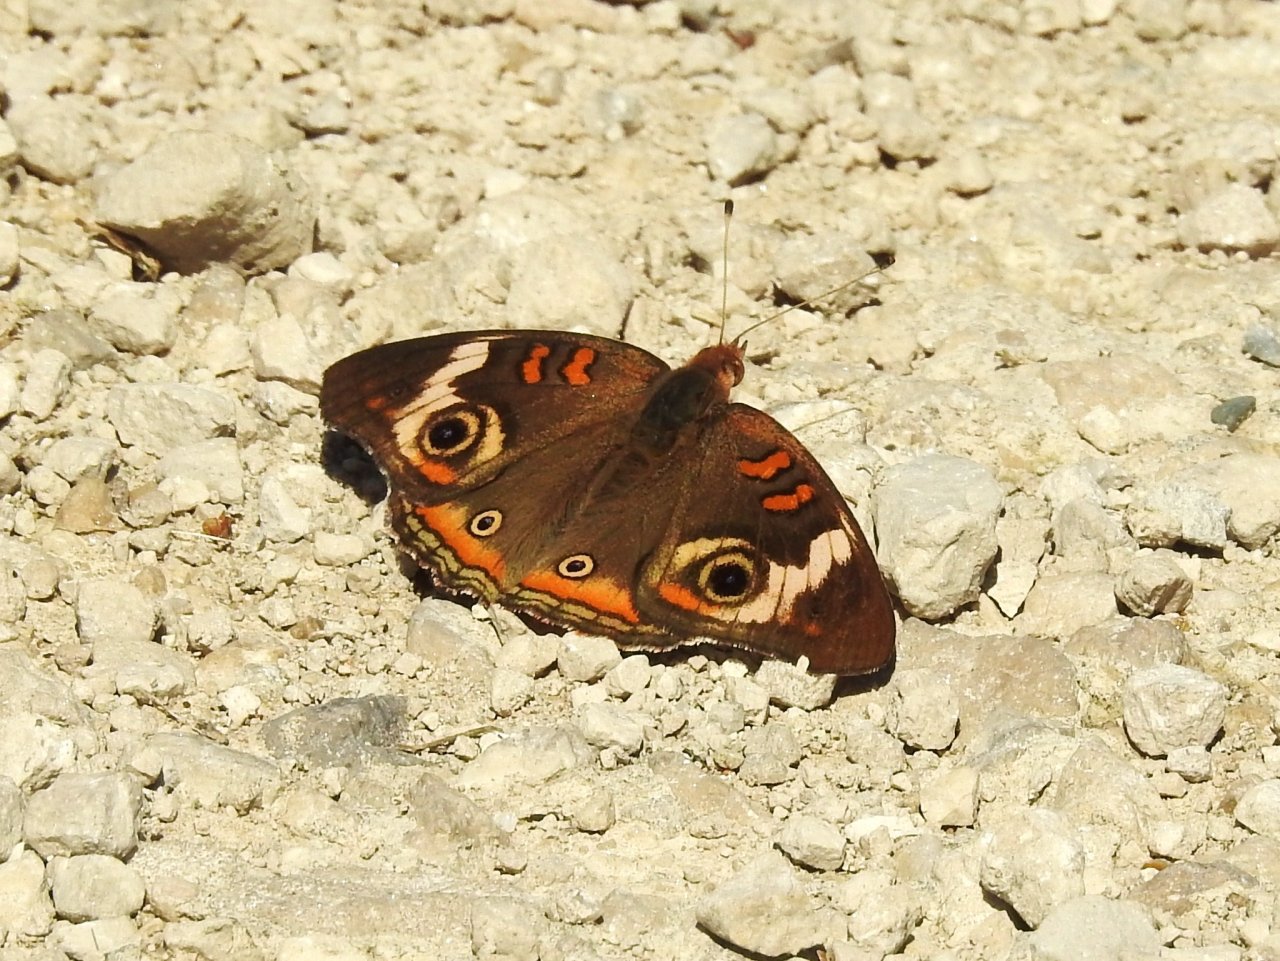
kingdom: Animalia
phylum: Arthropoda
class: Insecta
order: Lepidoptera
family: Nymphalidae
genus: Junonia
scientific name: Junonia coenia
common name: Common Buckeye
